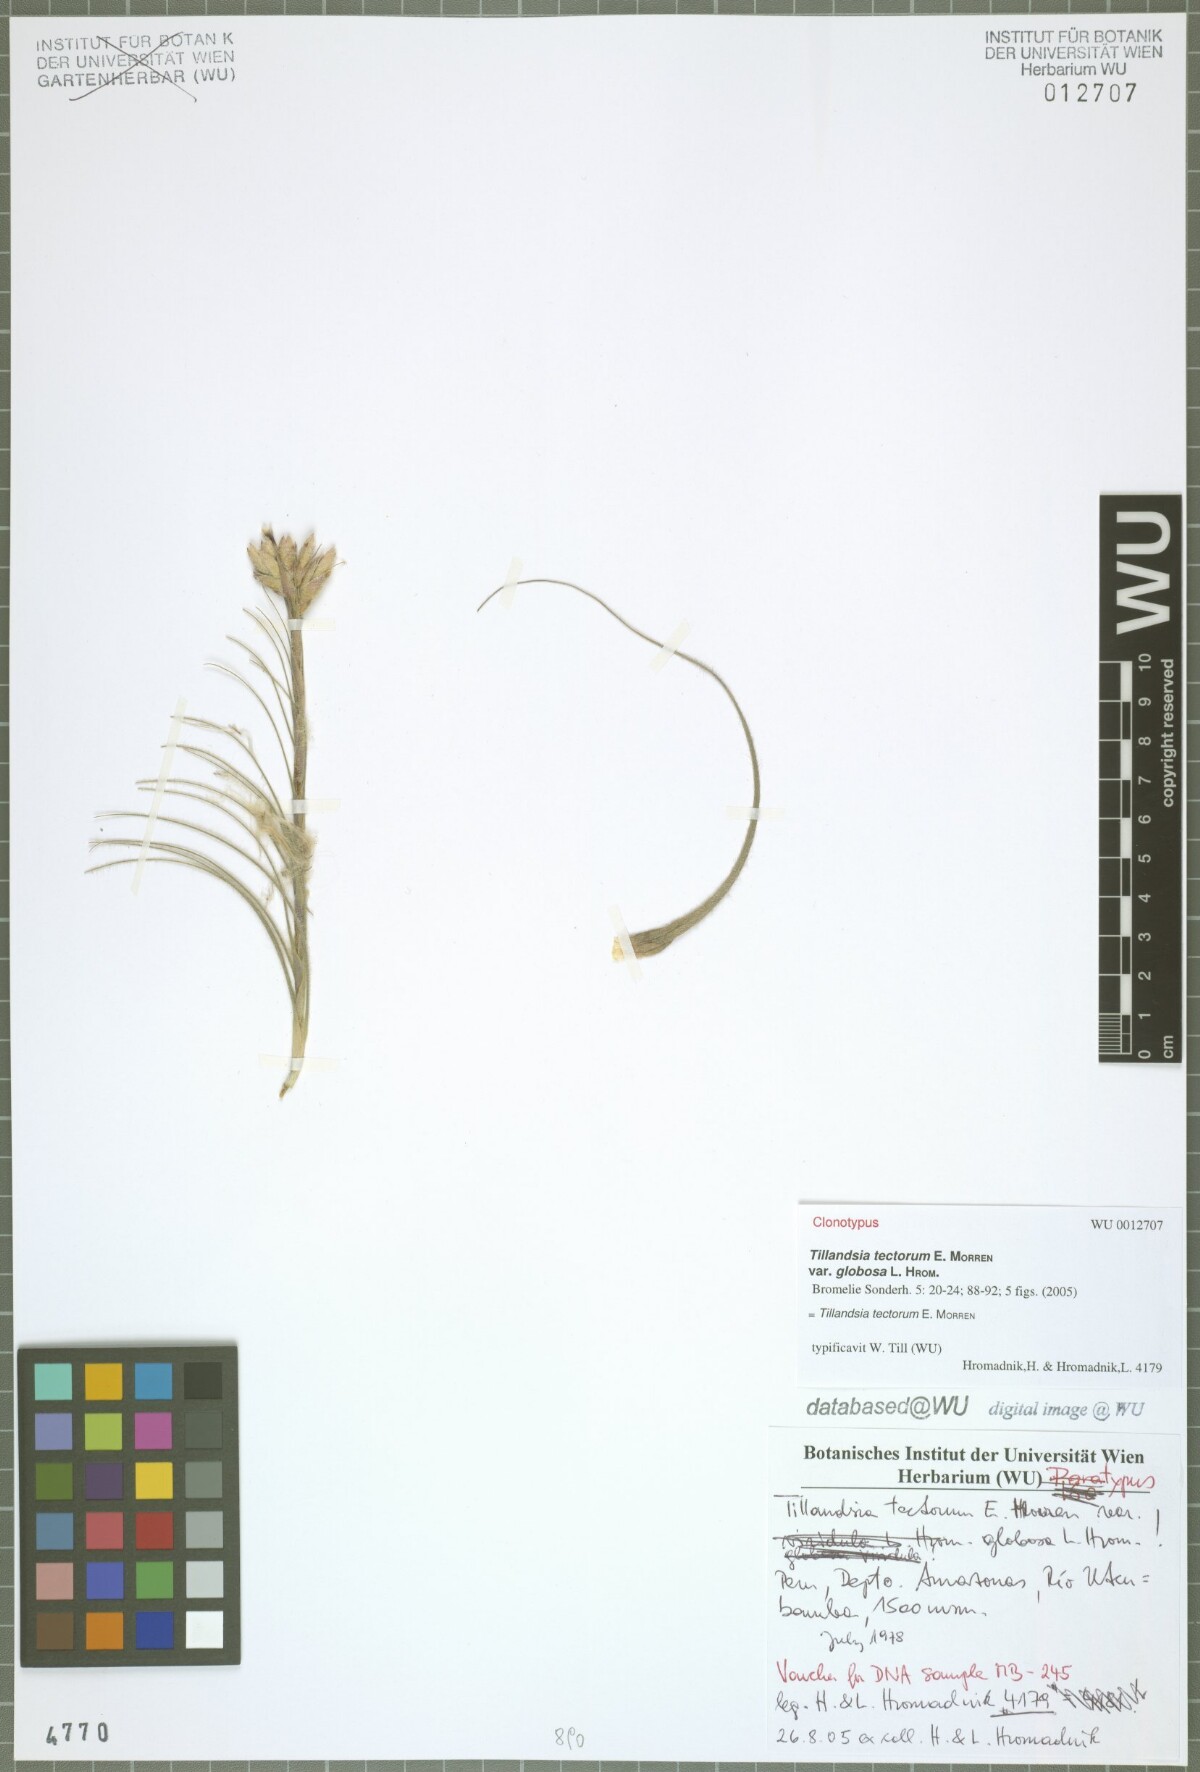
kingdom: Plantae
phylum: Tracheophyta
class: Liliopsida
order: Poales
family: Bromeliaceae
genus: Tillandsia
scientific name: Tillandsia tectorum
